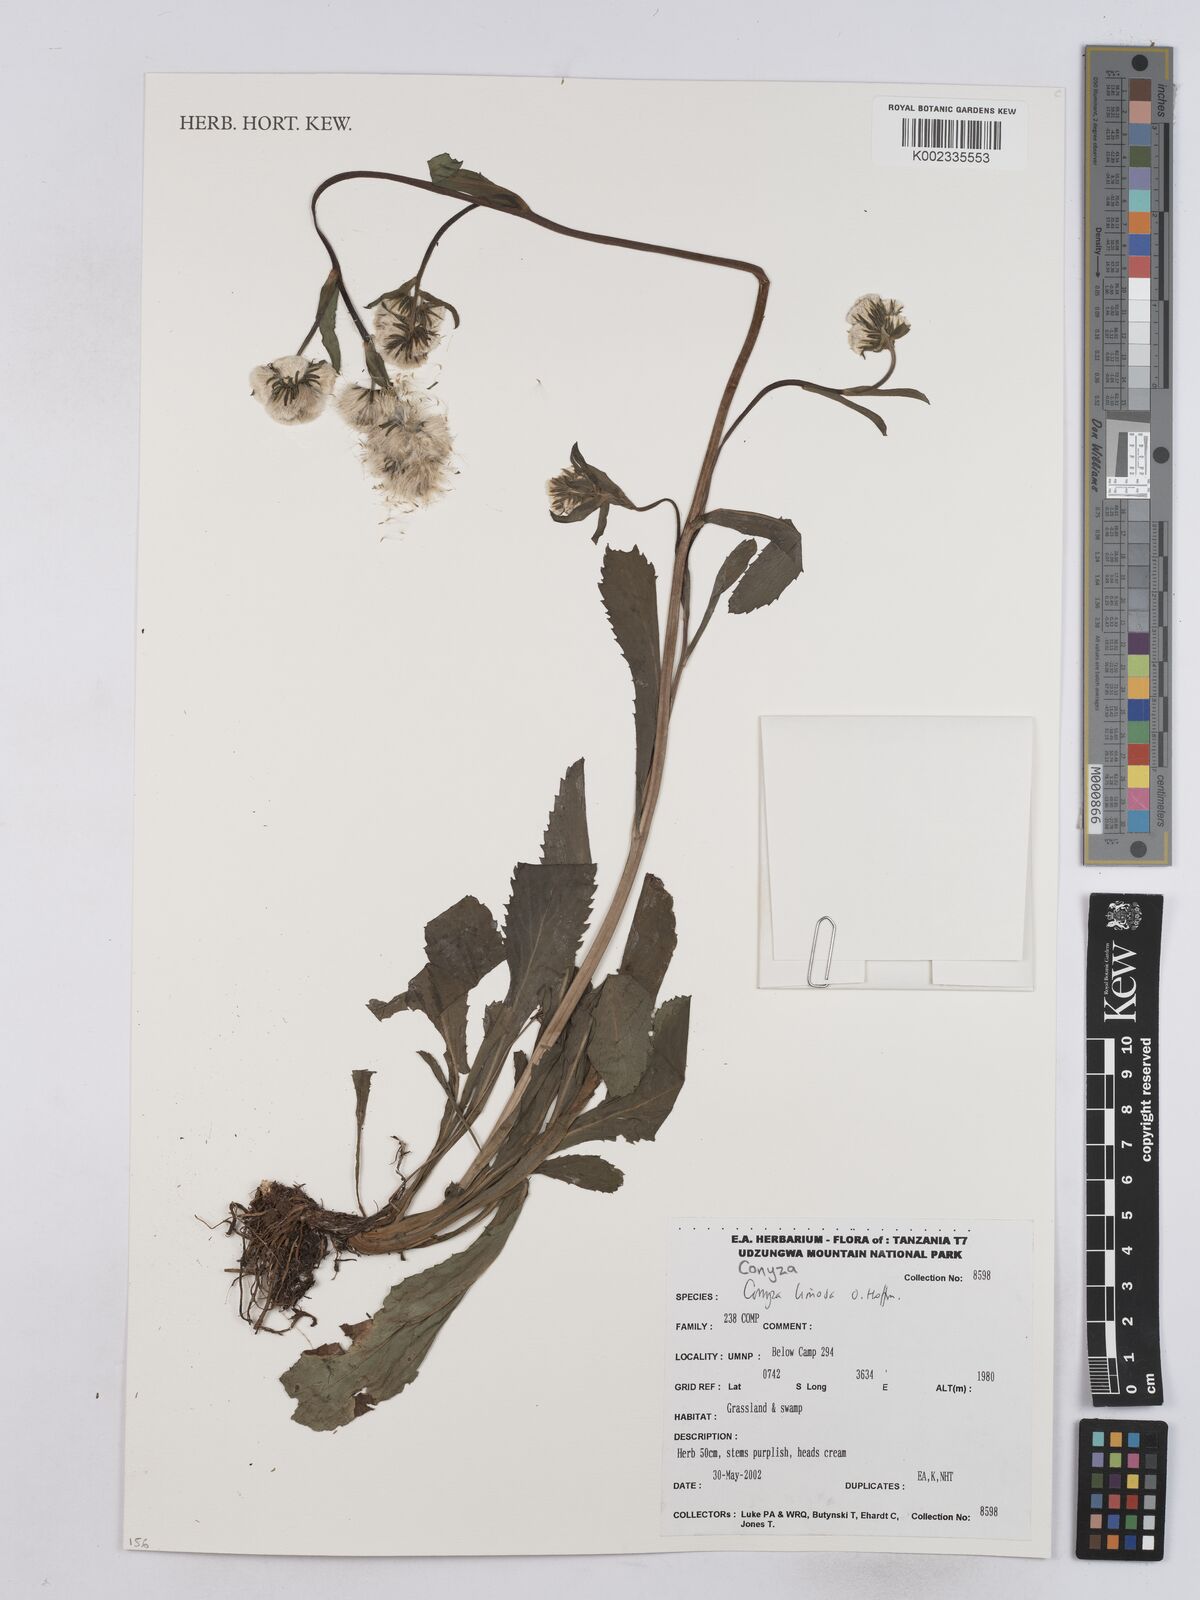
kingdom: Plantae
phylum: Tracheophyta
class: Magnoliopsida
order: Asterales
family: Asteraceae
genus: Conyza
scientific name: Conyza limosa
